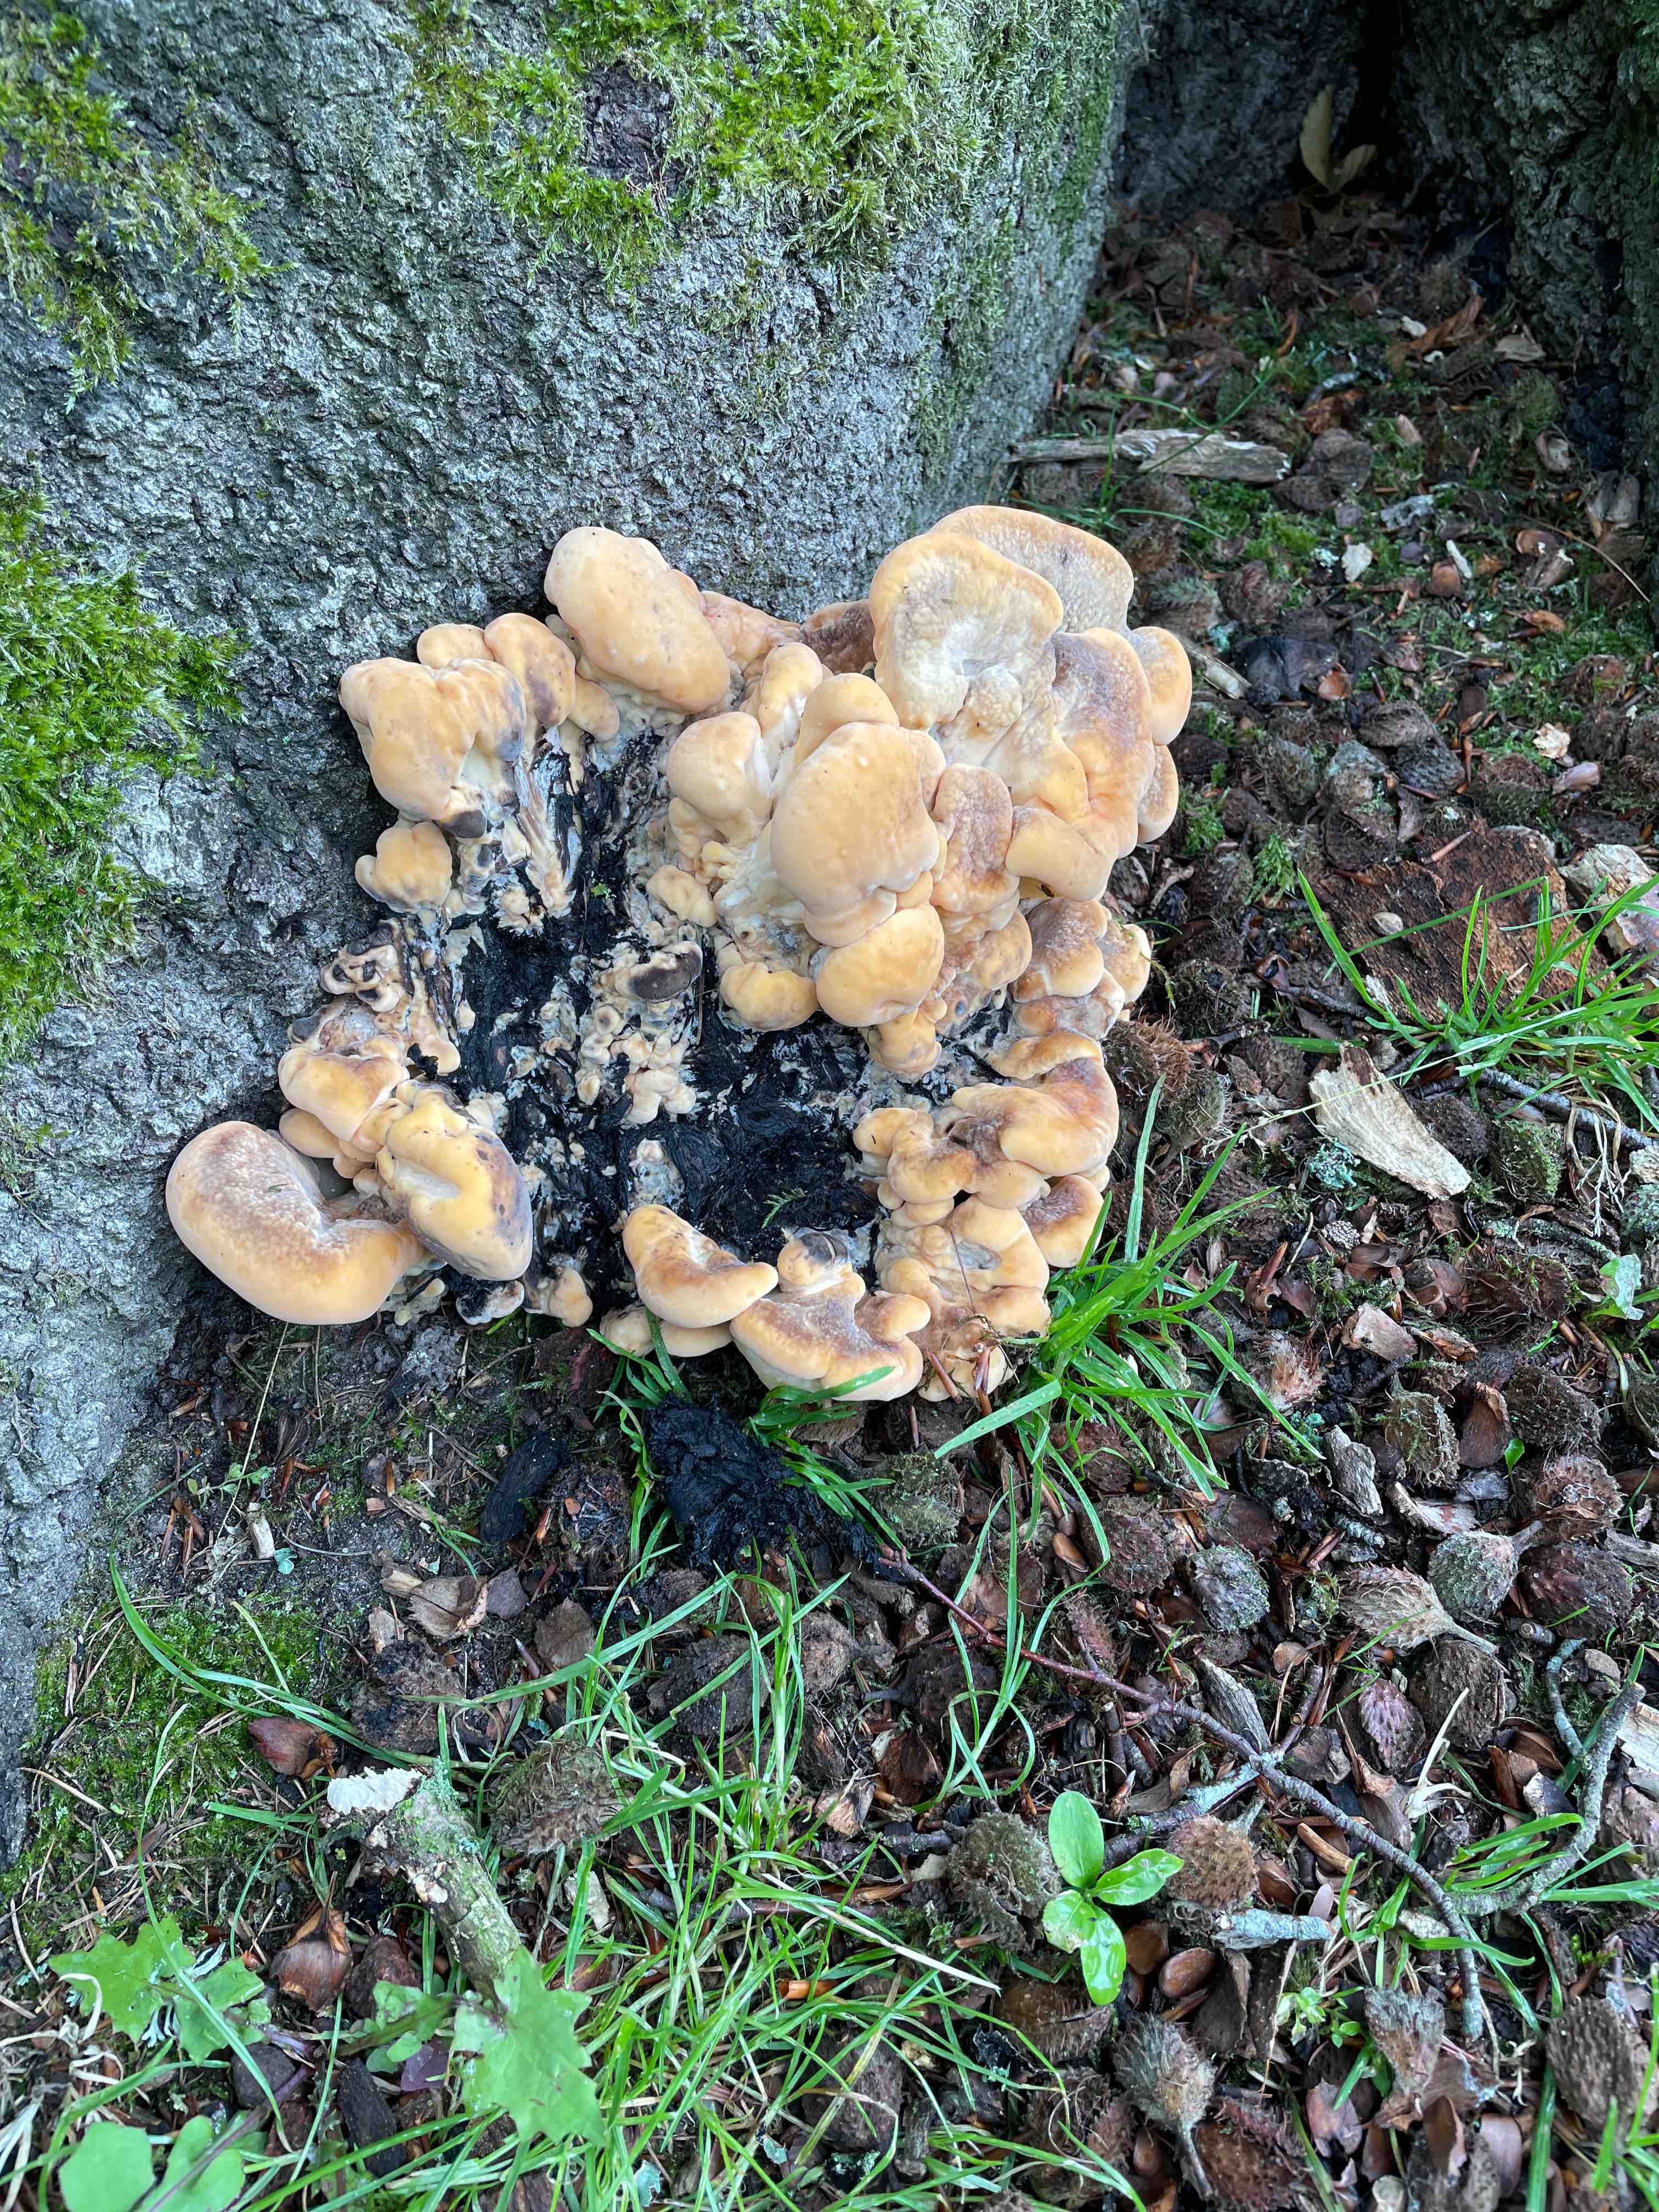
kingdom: Fungi
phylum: Basidiomycota
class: Agaricomycetes
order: Polyporales
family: Meripilaceae
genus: Meripilus
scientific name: Meripilus giganteus
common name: kæmpeporesvamp
